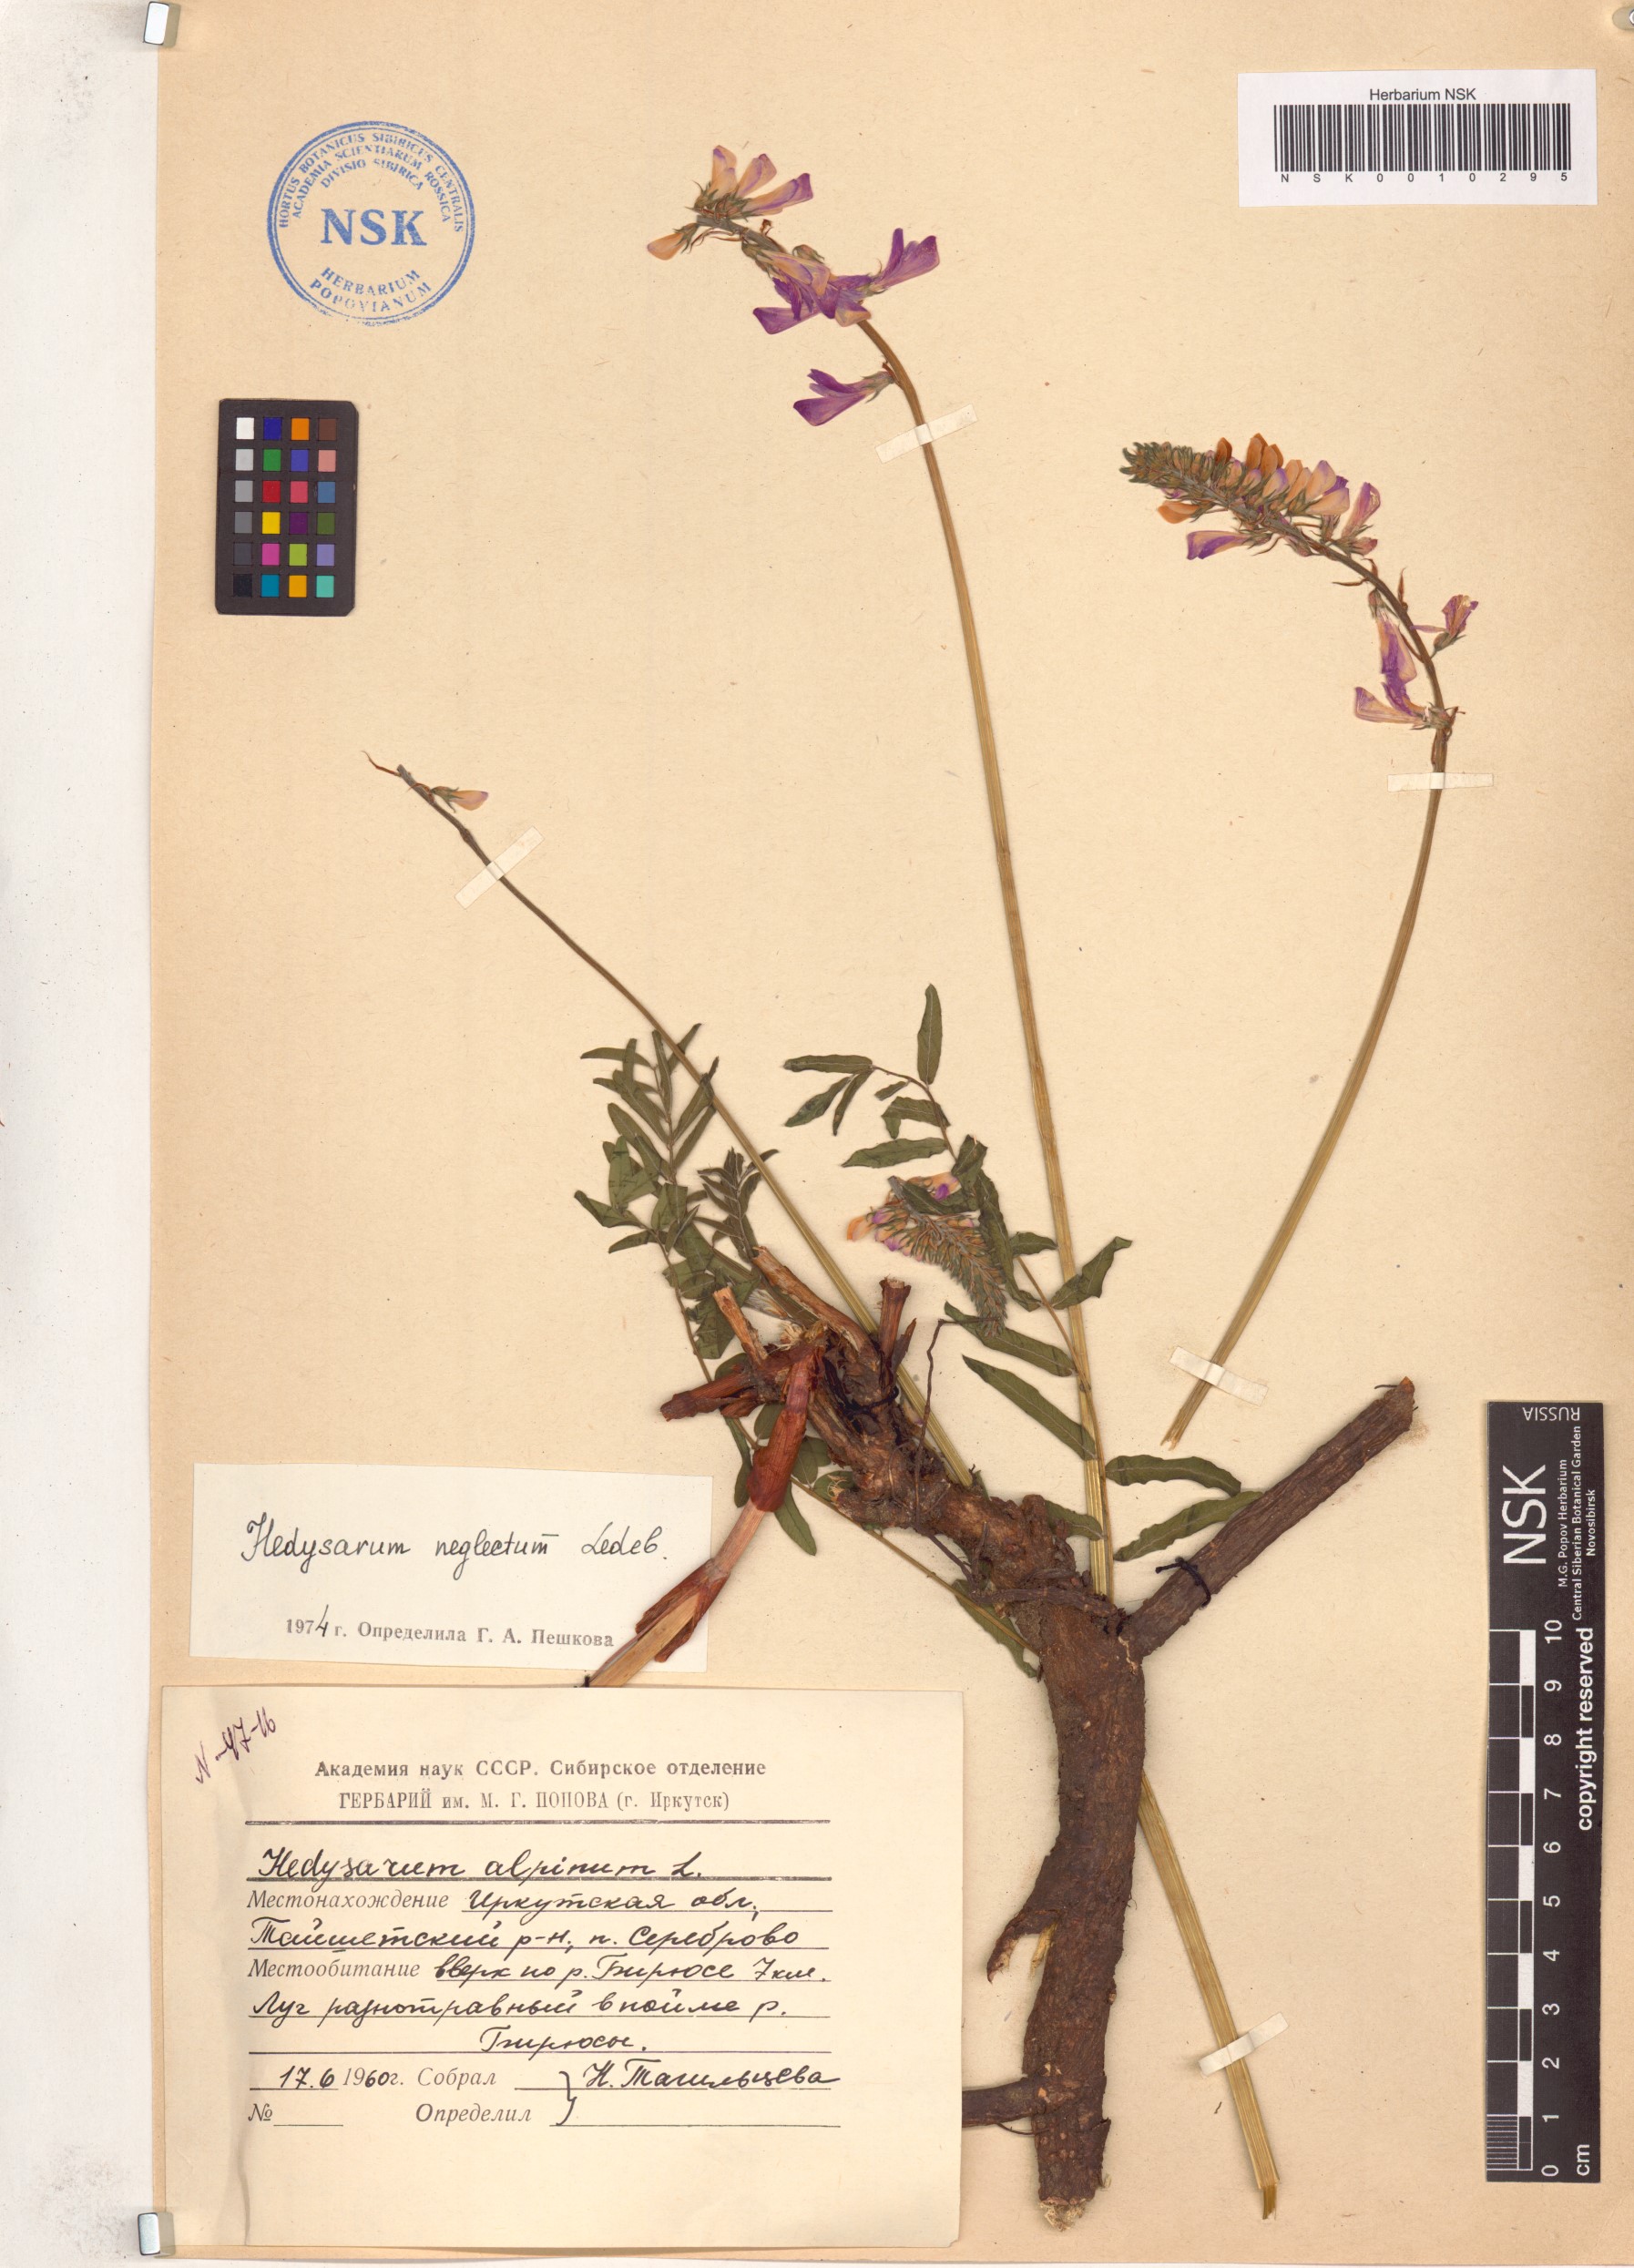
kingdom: Plantae
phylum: Tracheophyta
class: Magnoliopsida
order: Fabales
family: Fabaceae
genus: Hedysarum
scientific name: Hedysarum neglectum
